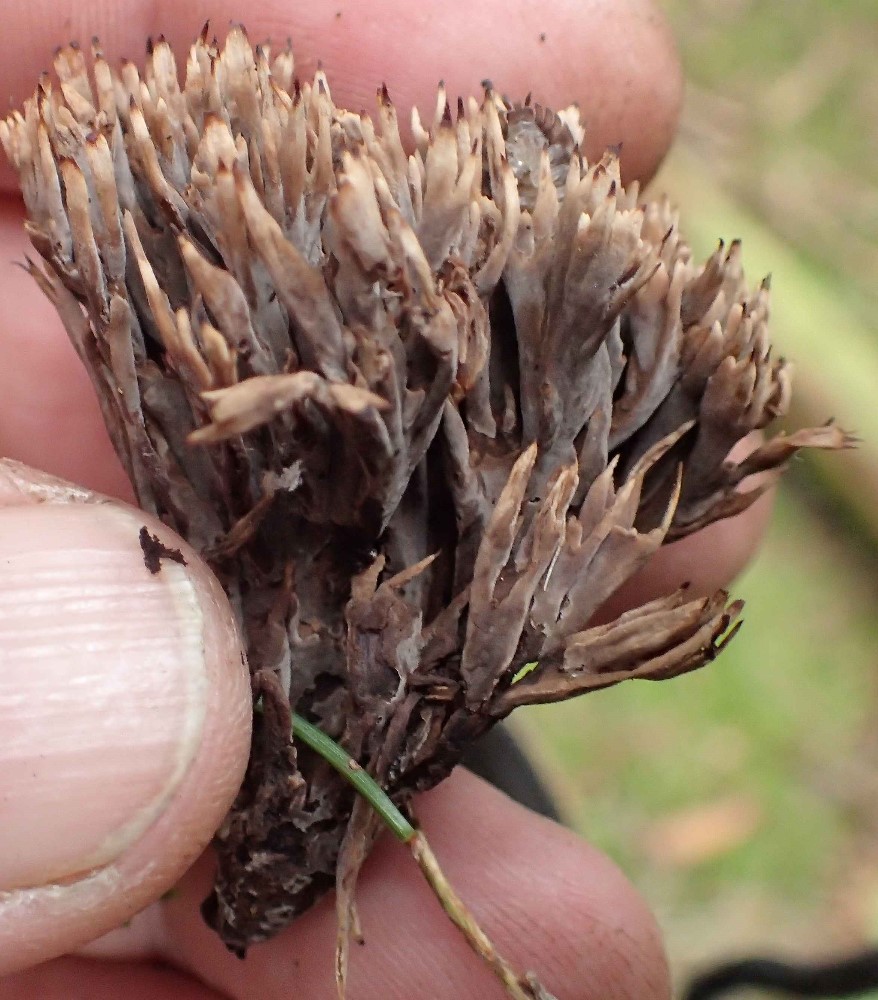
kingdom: Fungi
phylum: Basidiomycota
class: Agaricomycetes
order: Thelephorales
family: Thelephoraceae
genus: Thelephora
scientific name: Thelephora palmata
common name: grenet frynsesvamp
